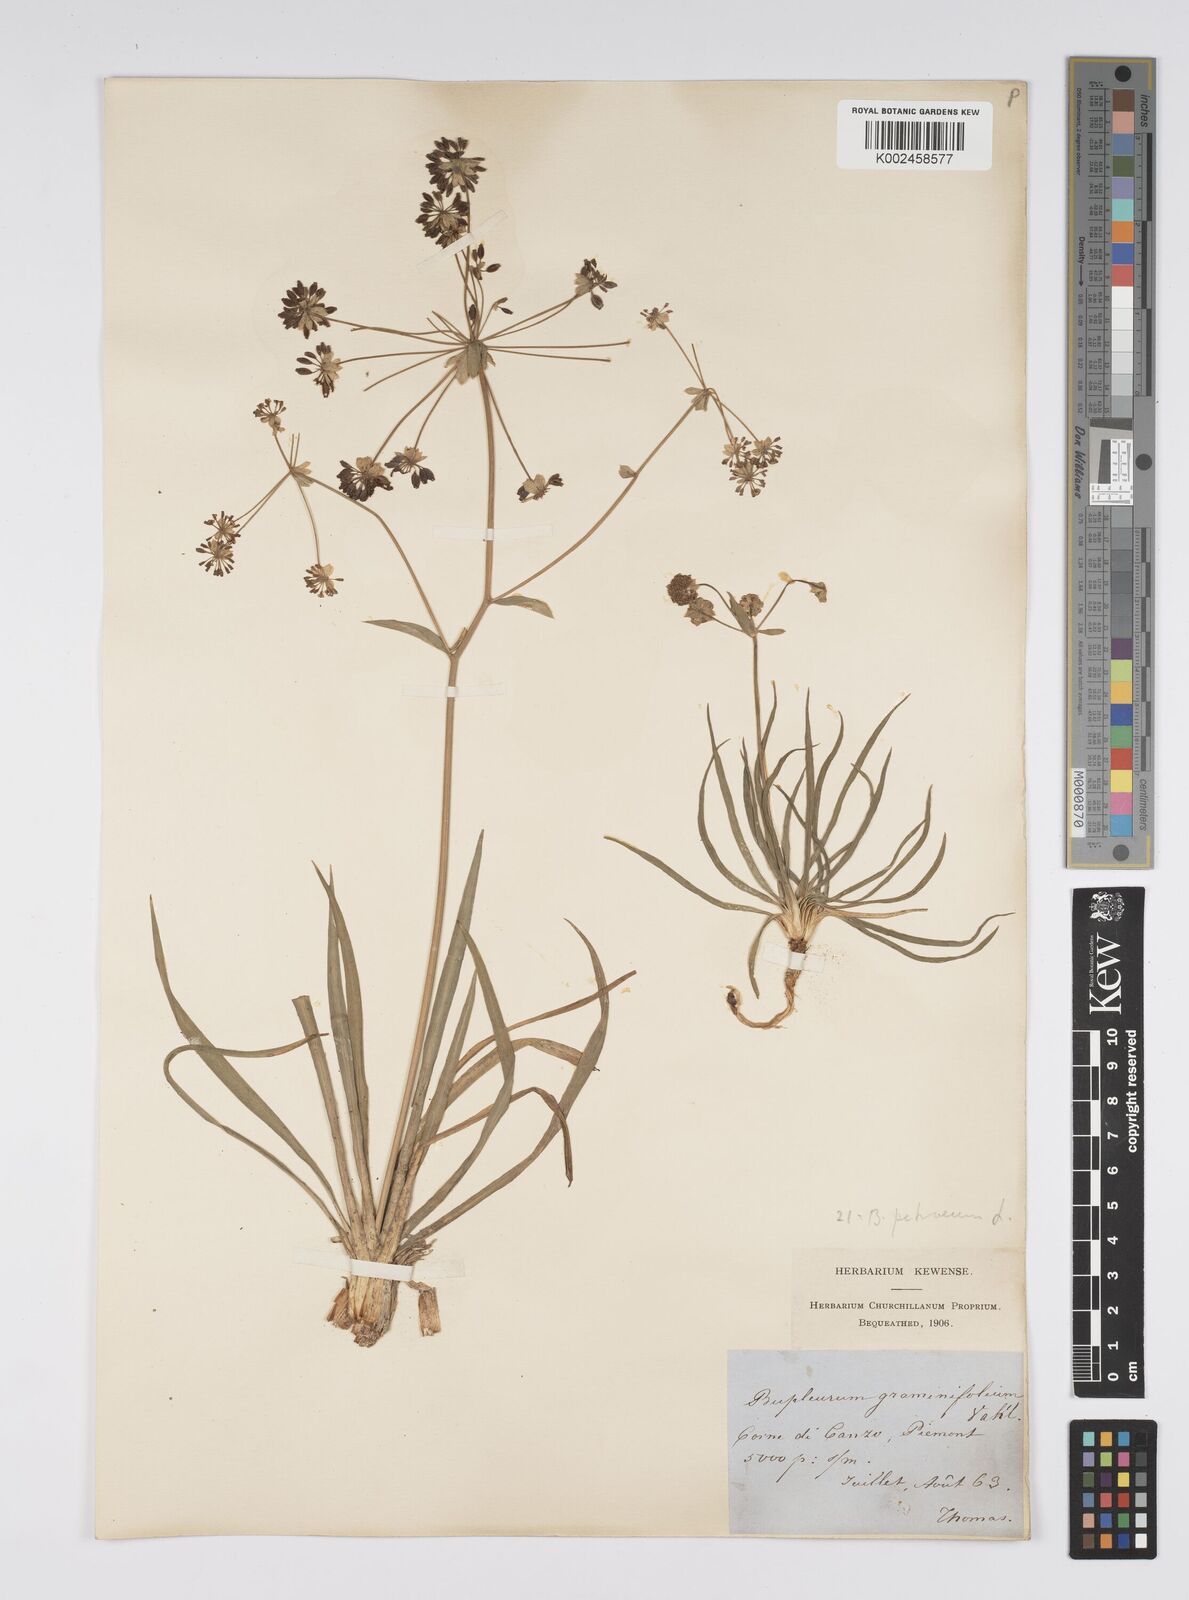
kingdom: Plantae
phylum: Tracheophyta
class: Magnoliopsida
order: Apiales
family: Apiaceae
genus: Bupleurum
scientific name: Bupleurum petraeum
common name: Rock hare's-ear
